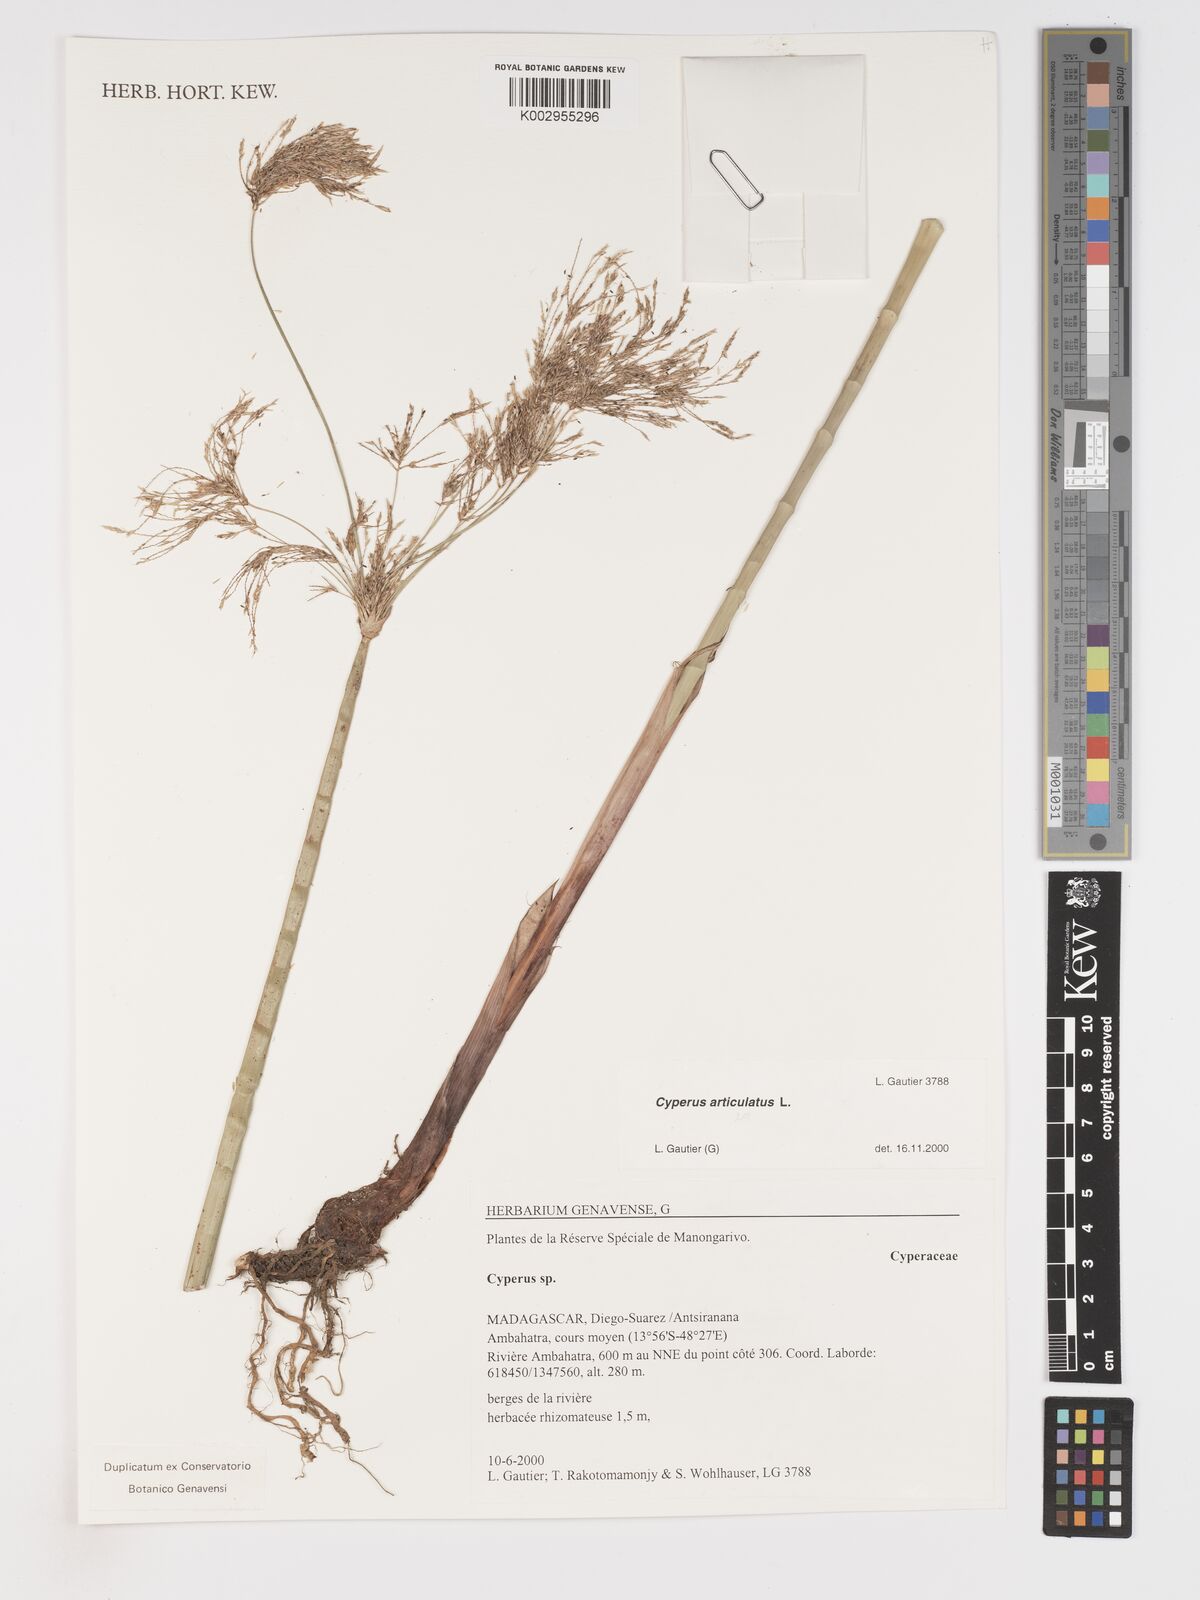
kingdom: Plantae
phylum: Tracheophyta
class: Liliopsida
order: Poales
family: Cyperaceae
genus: Cyperus
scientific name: Cyperus articulatus
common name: Jointed flatsedge
